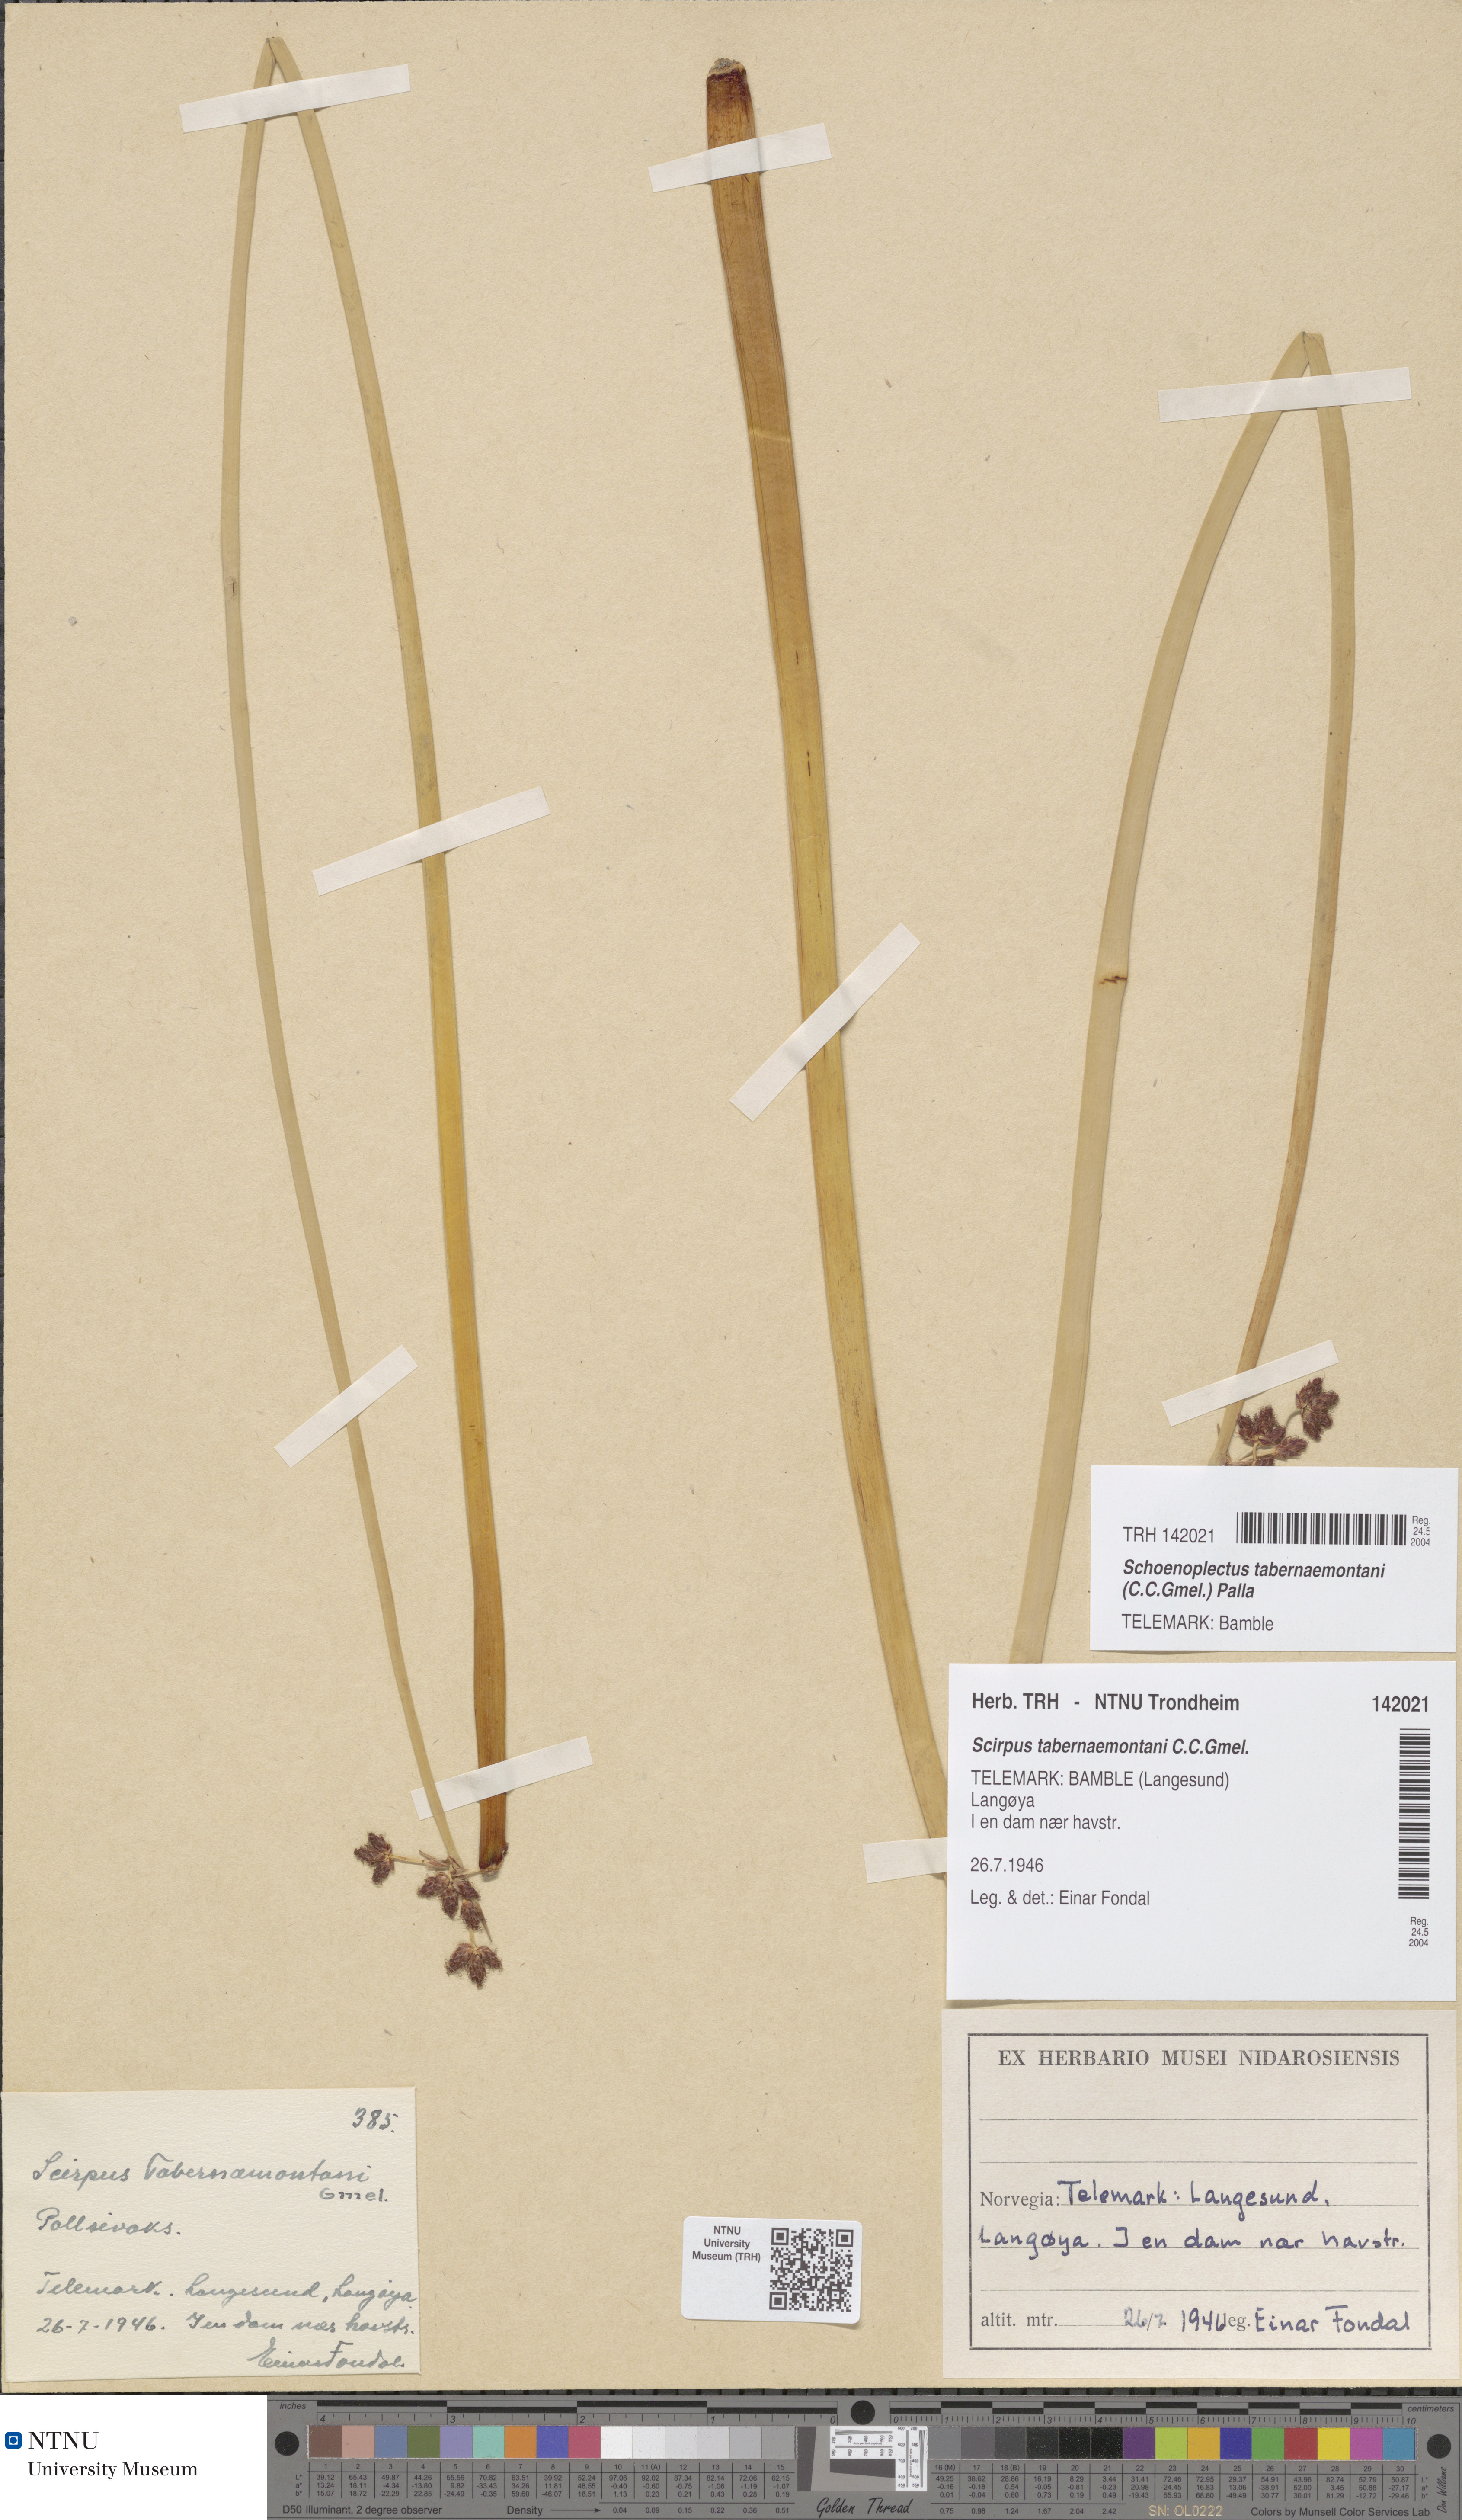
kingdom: Plantae
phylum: Tracheophyta
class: Liliopsida
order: Poales
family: Cyperaceae
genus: Schoenoplectus
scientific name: Schoenoplectus tabernaemontani
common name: Grey club-rush
